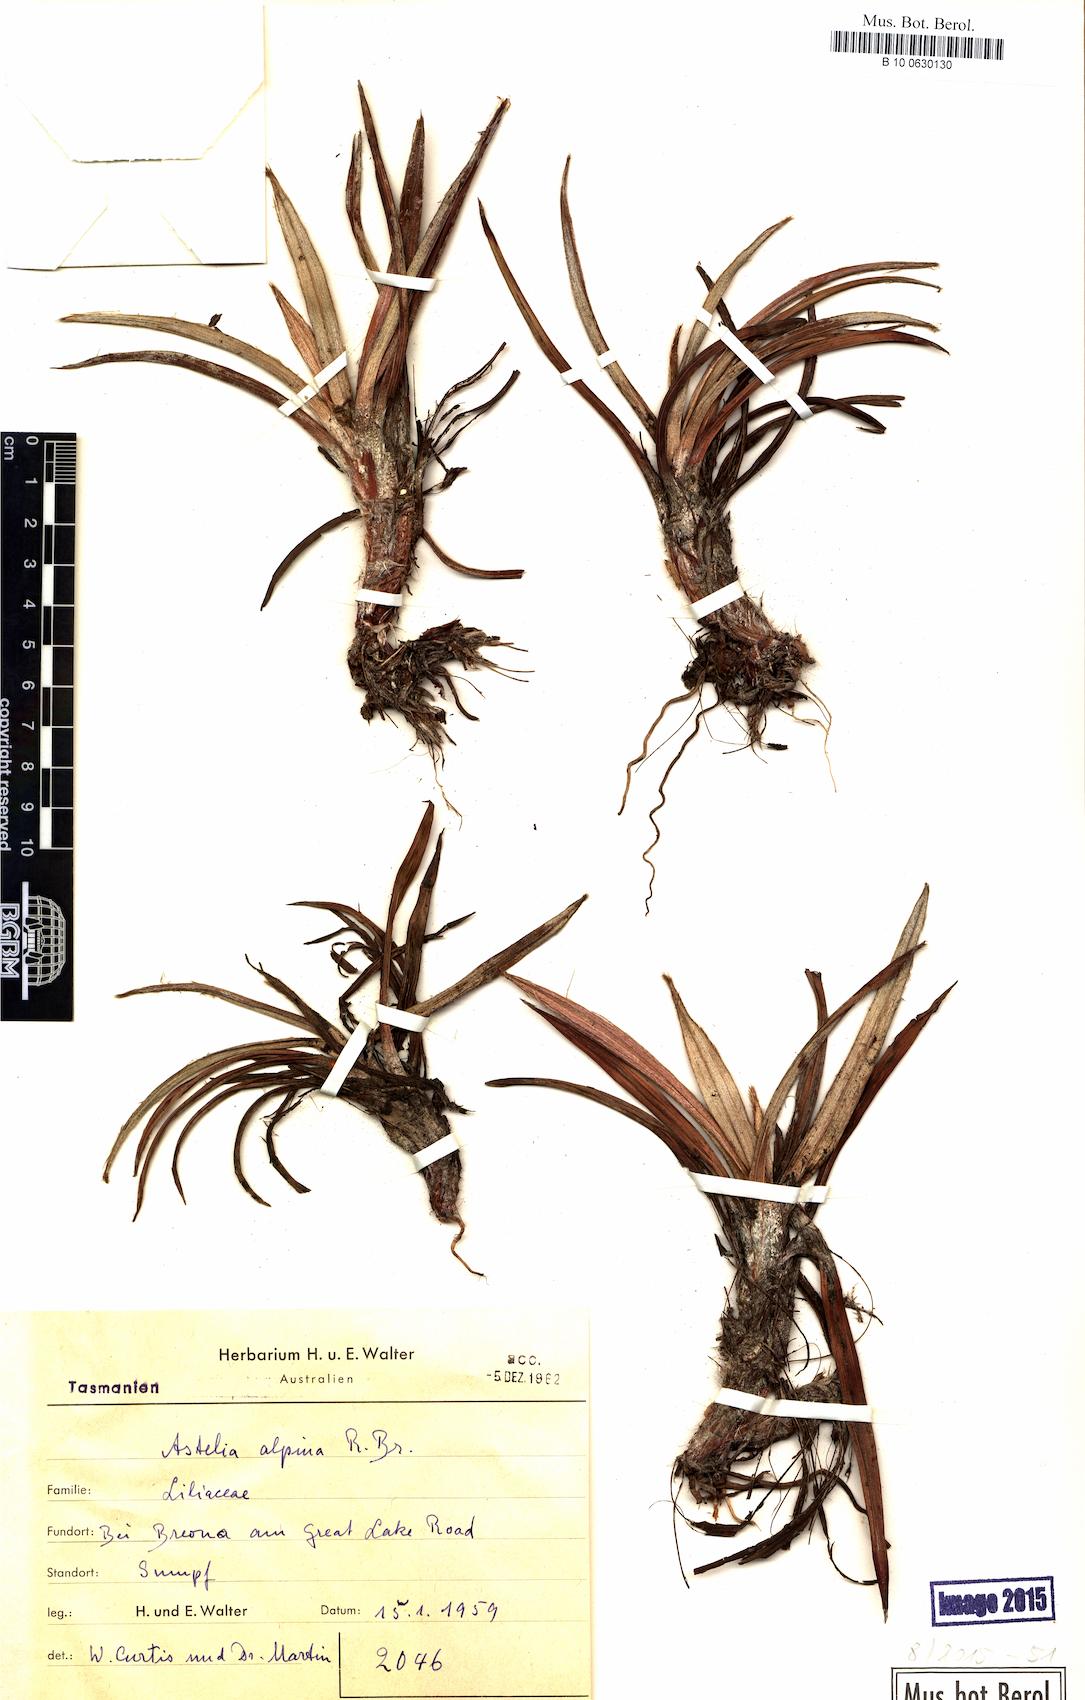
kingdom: Plantae
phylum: Tracheophyta
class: Liliopsida
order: Asparagales
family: Asteliaceae
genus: Astelia
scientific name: Astelia alpina
